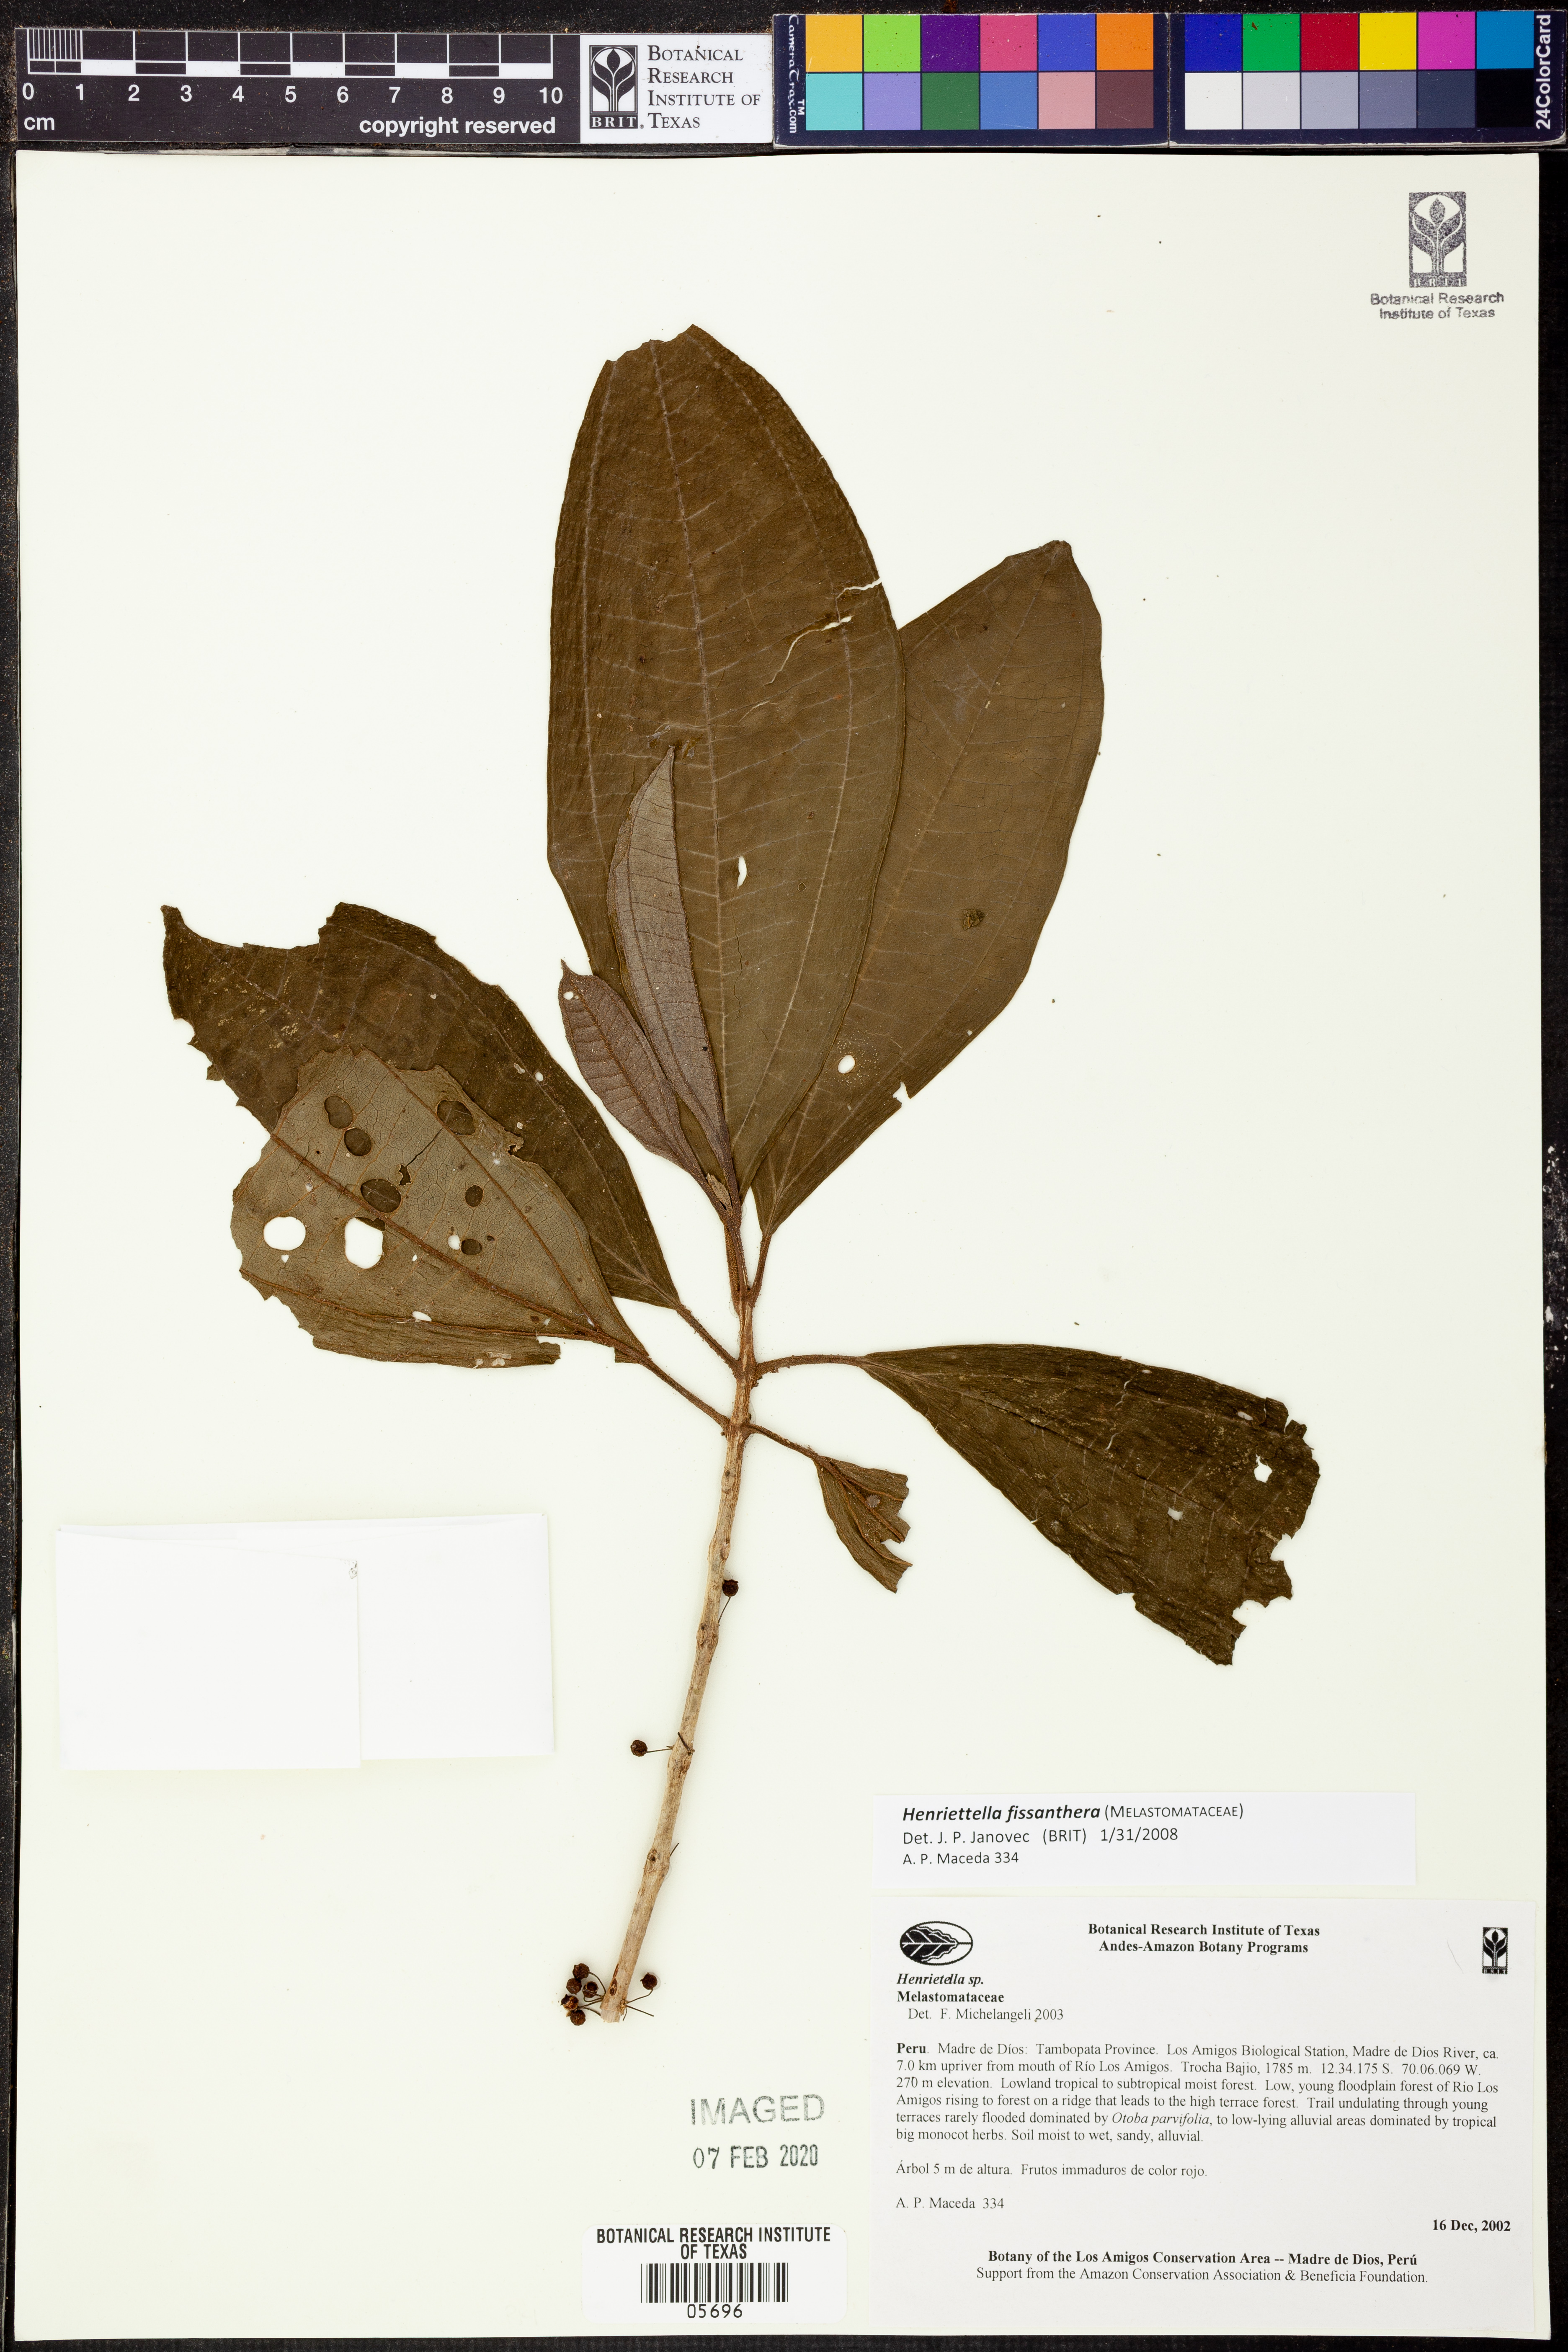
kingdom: Plantae
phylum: Tracheophyta
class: Magnoliopsida
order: Myrtales
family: Melastomataceae
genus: Henriettea
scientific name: Henriettea fissanthera
